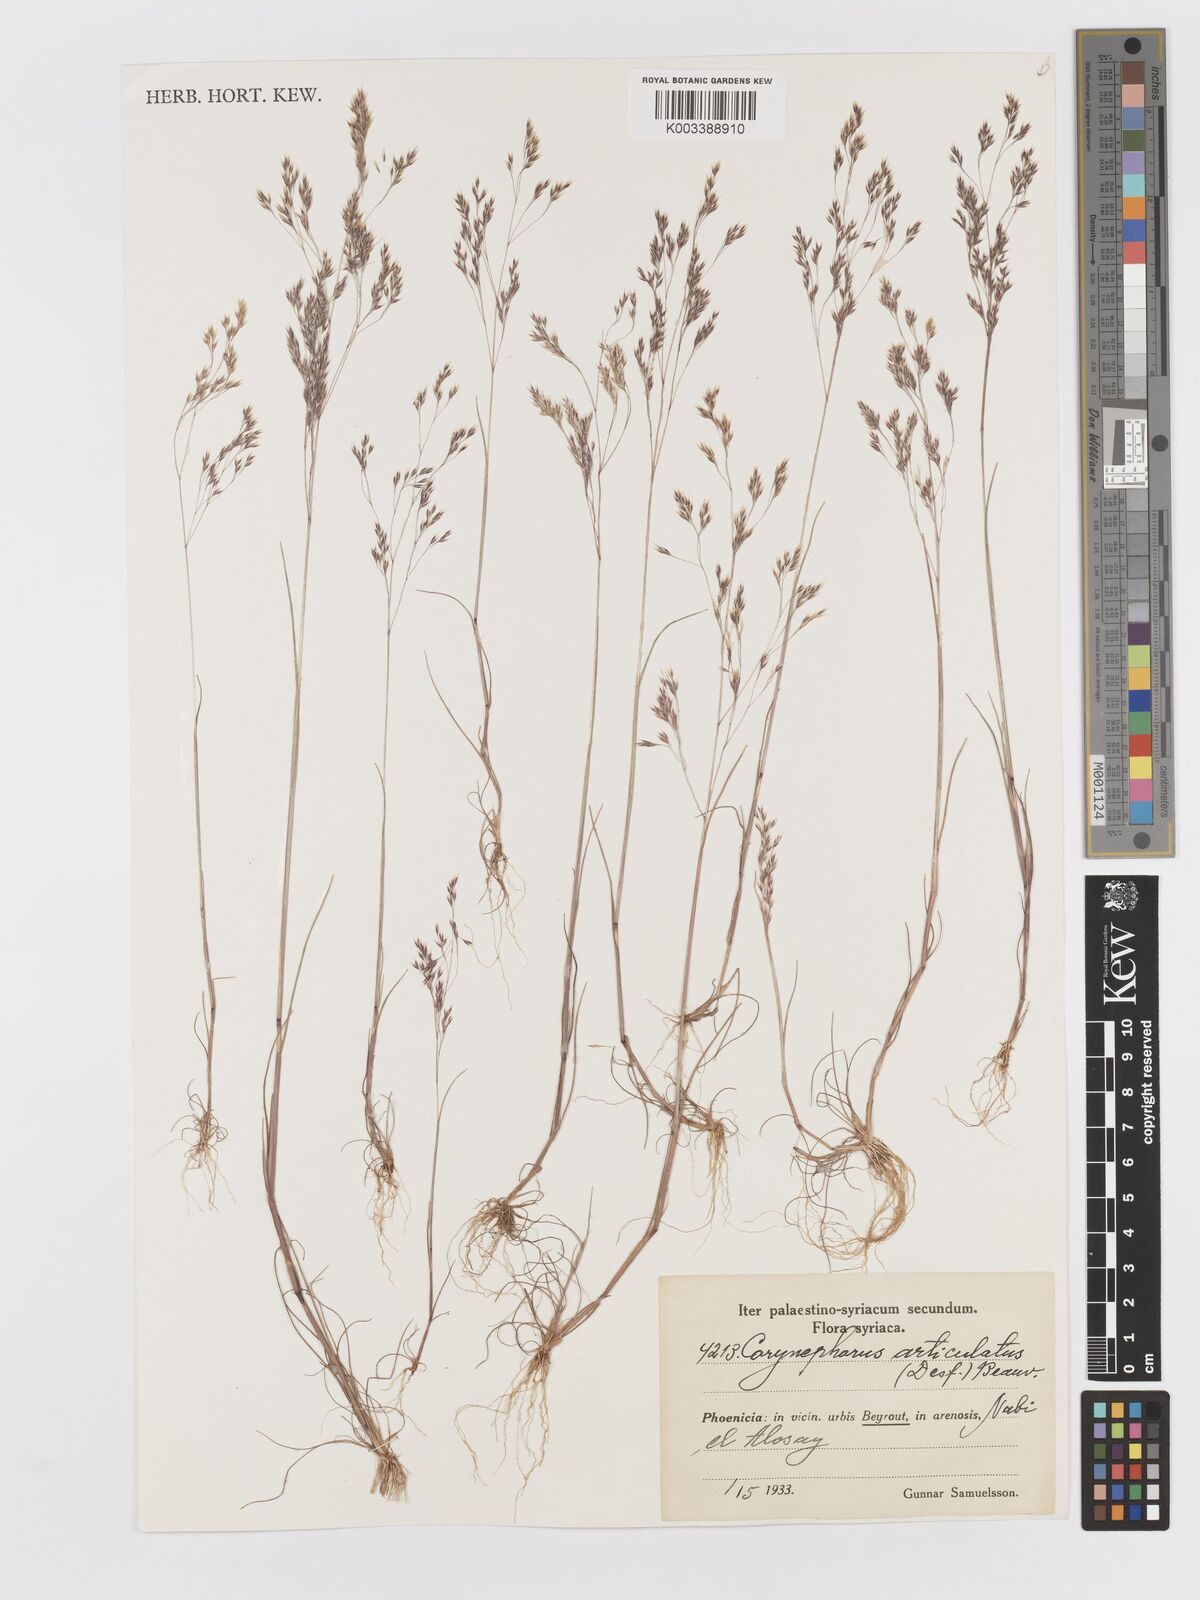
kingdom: Plantae
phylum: Tracheophyta
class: Liliopsida
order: Poales
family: Poaceae
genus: Corynephorus
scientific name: Corynephorus divaricatus
